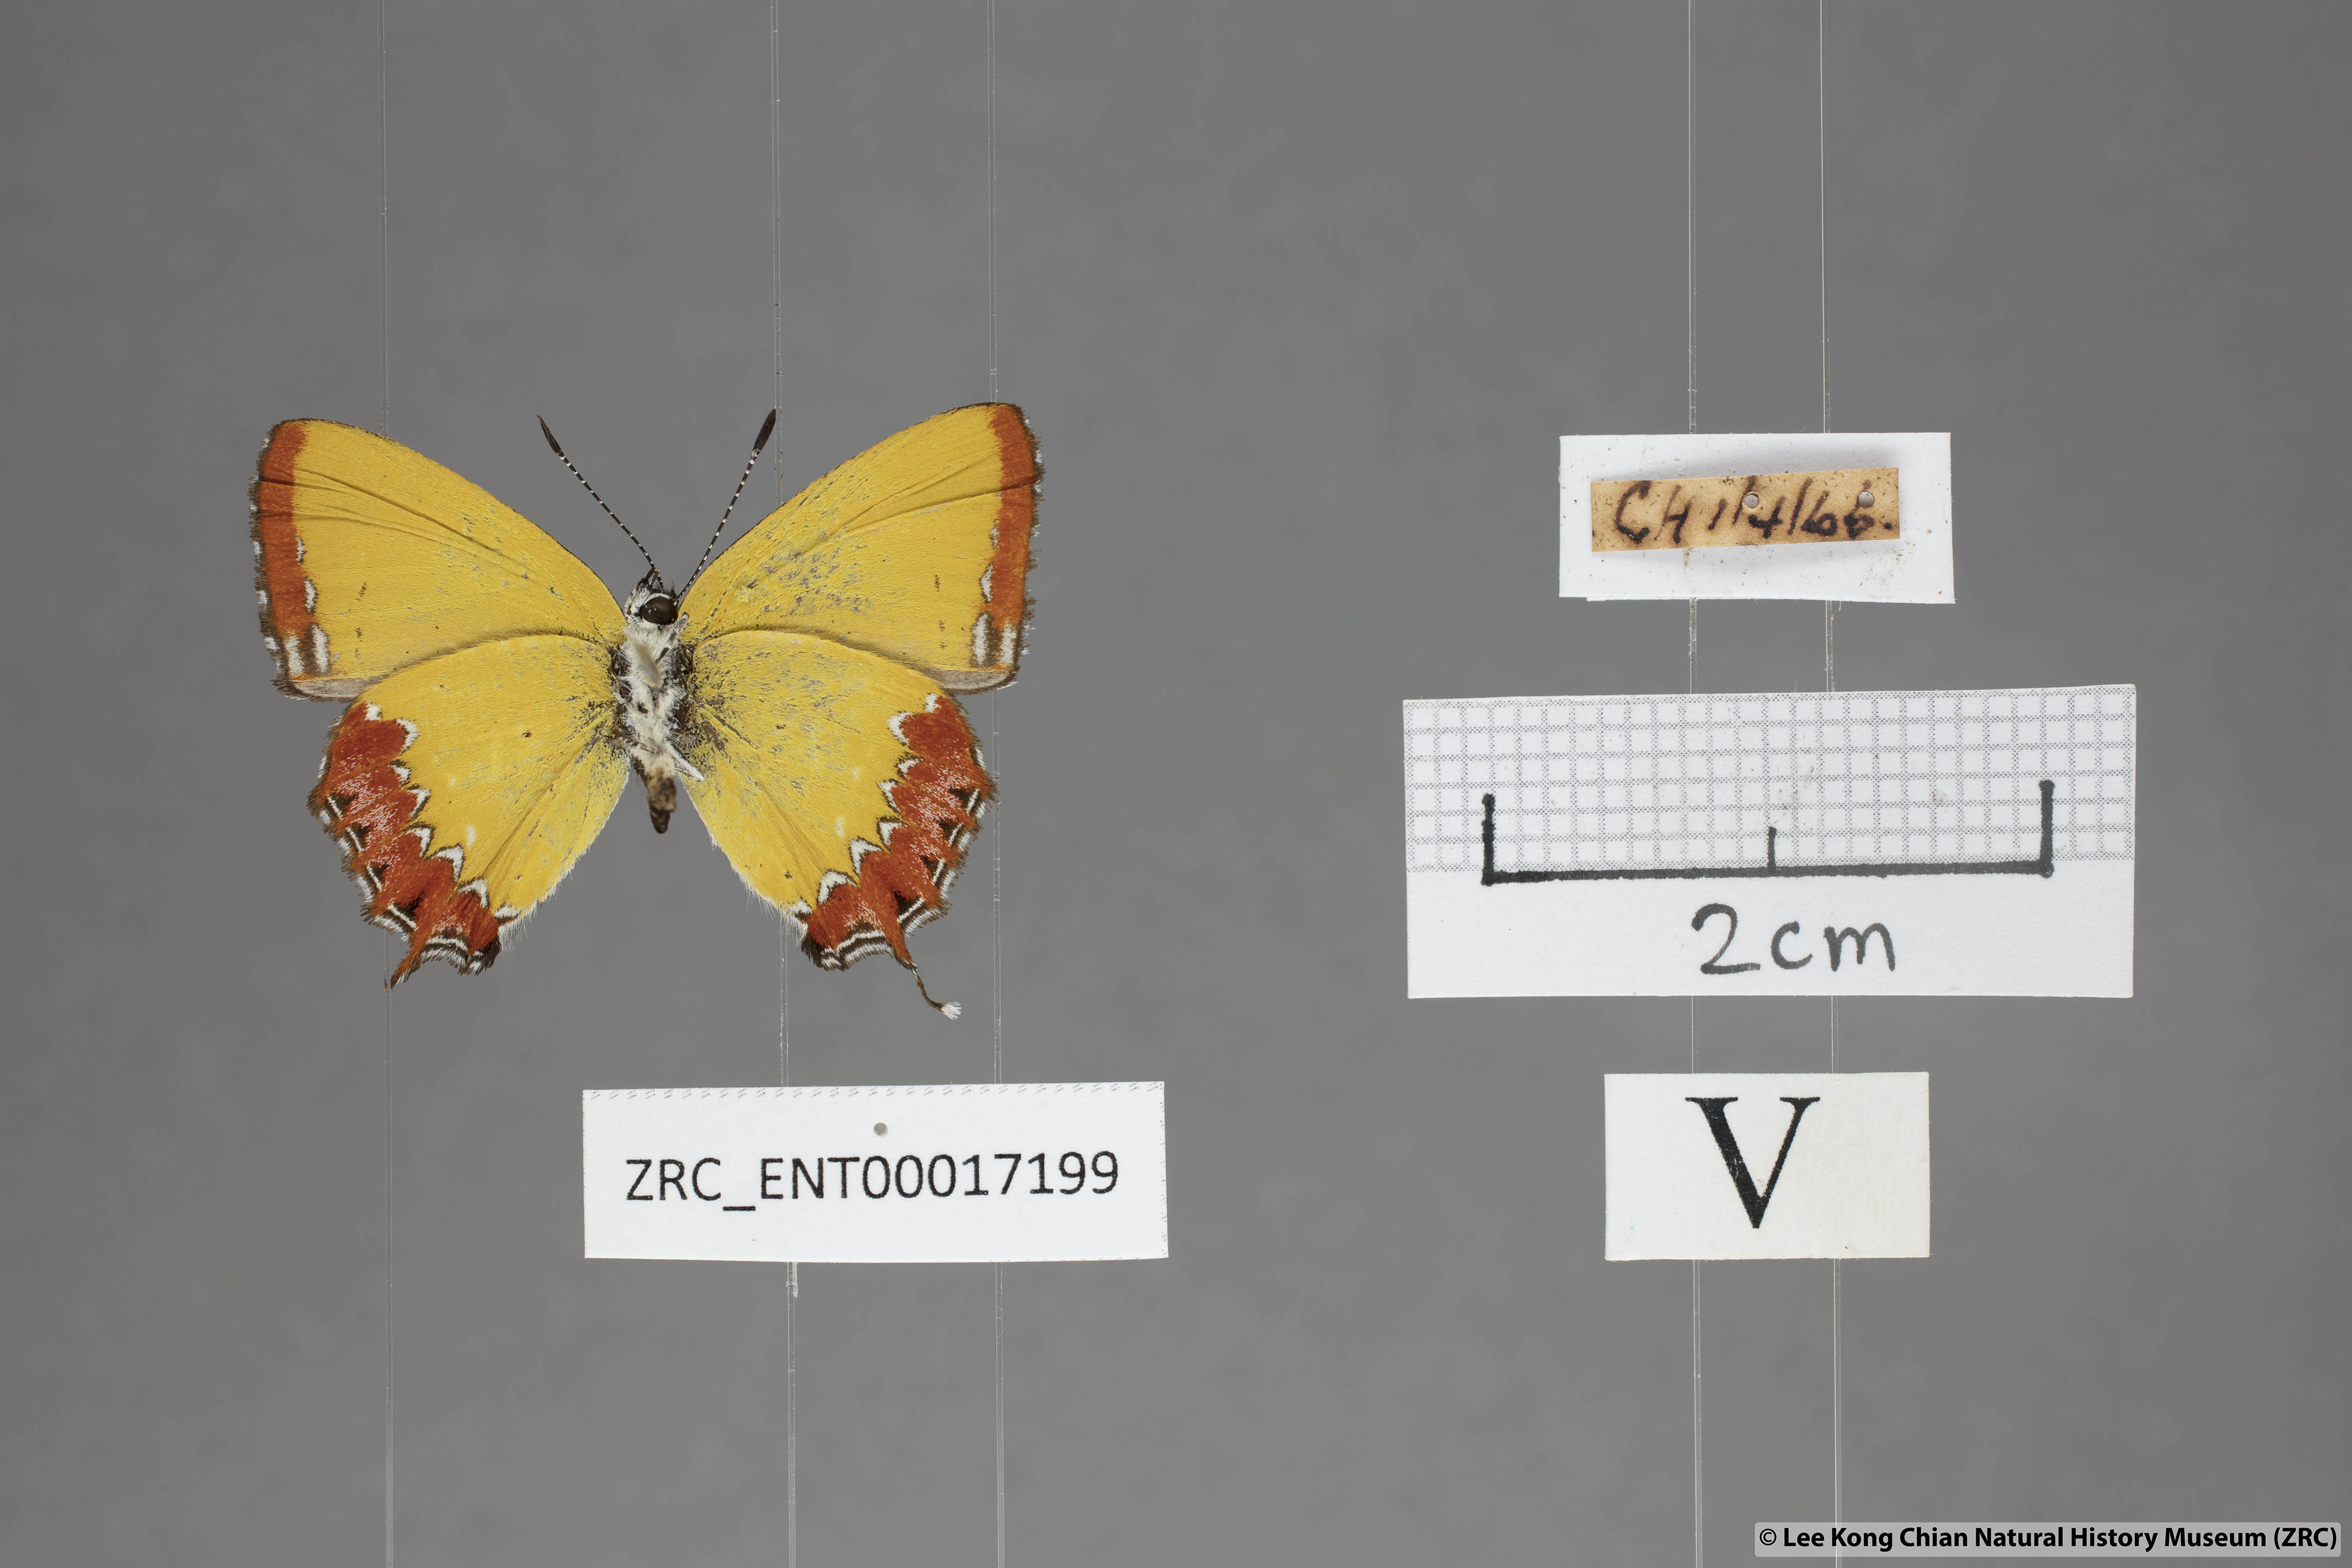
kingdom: Animalia
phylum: Arthropoda
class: Insecta
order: Lepidoptera
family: Lycaenidae
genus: Heliophorus
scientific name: Heliophorus epicles
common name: Purple sapphire
